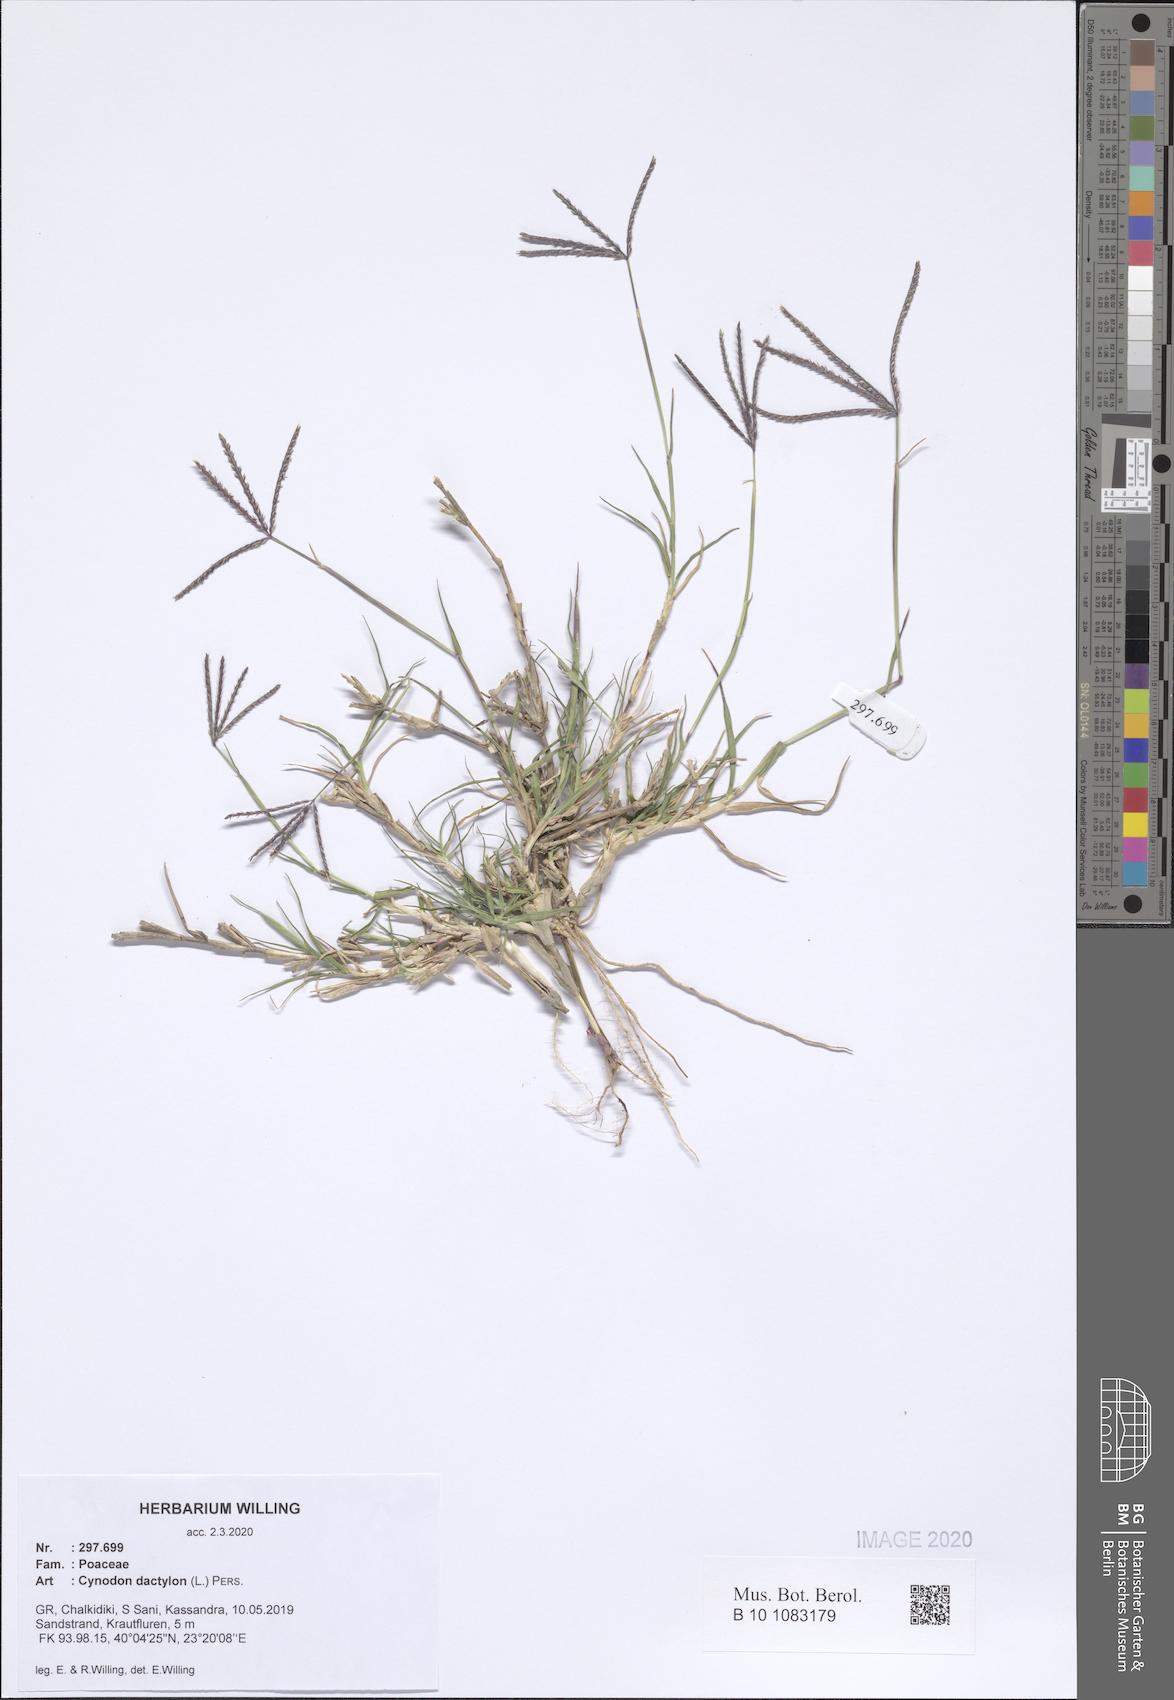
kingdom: Plantae
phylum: Tracheophyta
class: Liliopsida
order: Poales
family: Poaceae
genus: Cynodon
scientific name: Cynodon dactylon
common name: Bermuda grass
